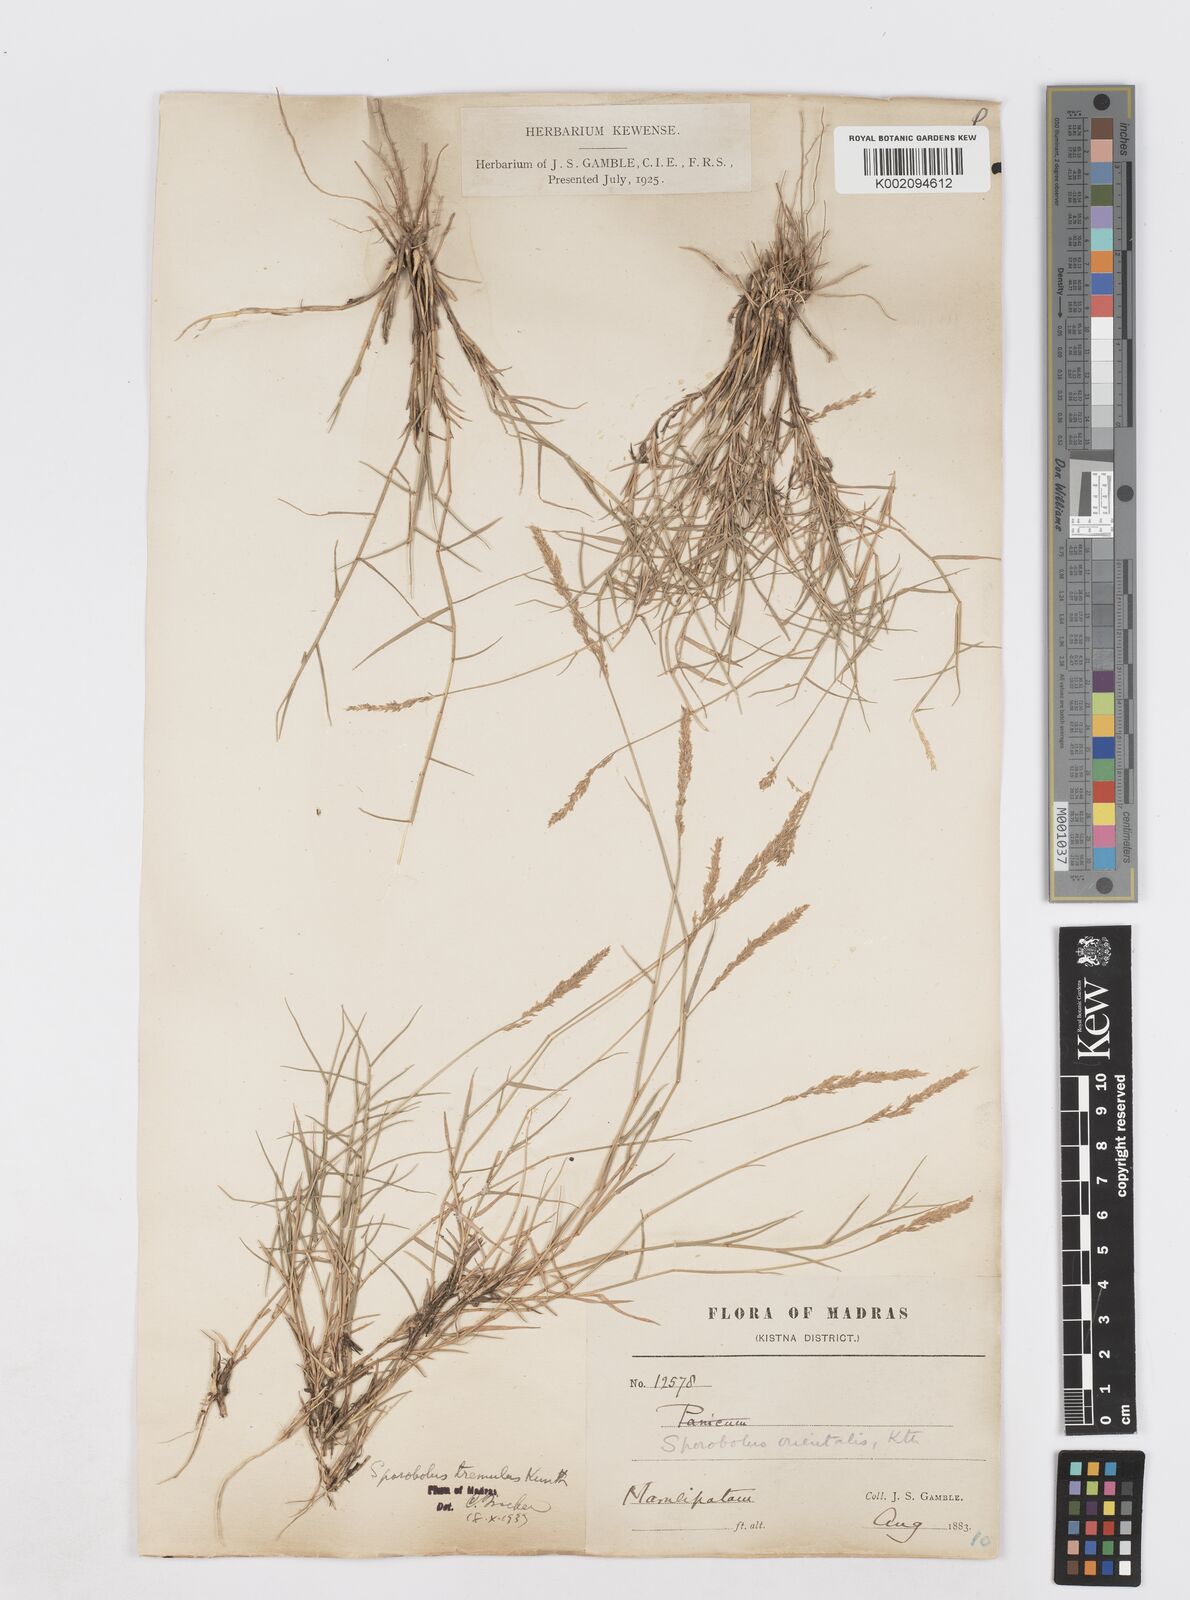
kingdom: Plantae
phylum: Tracheophyta
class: Liliopsida
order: Poales
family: Poaceae
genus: Sporobolus
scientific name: Sporobolus virginicus
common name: Beach dropseed
